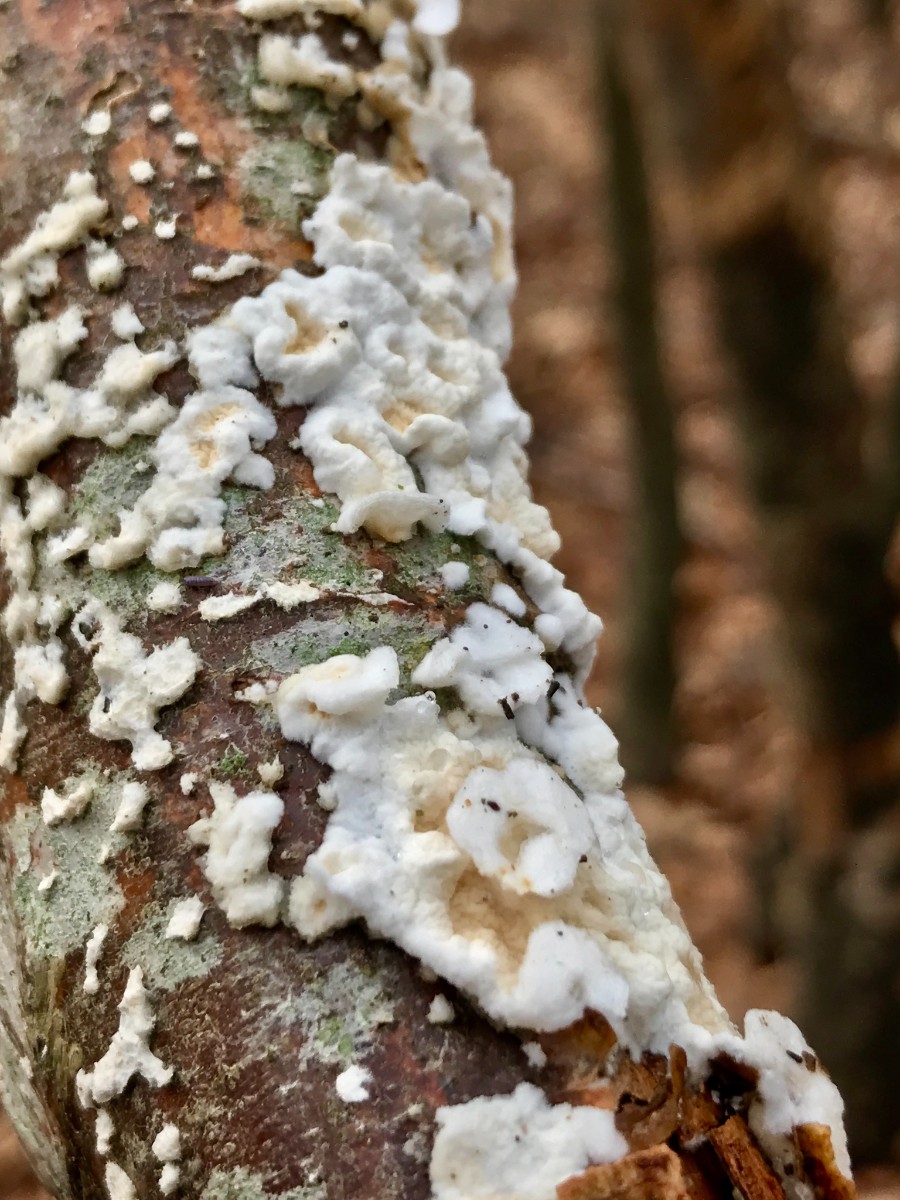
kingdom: Fungi
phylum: Basidiomycota
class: Agaricomycetes
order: Polyporales
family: Irpicaceae
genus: Byssomerulius
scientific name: Byssomerulius corium
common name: læder-åresvamp
